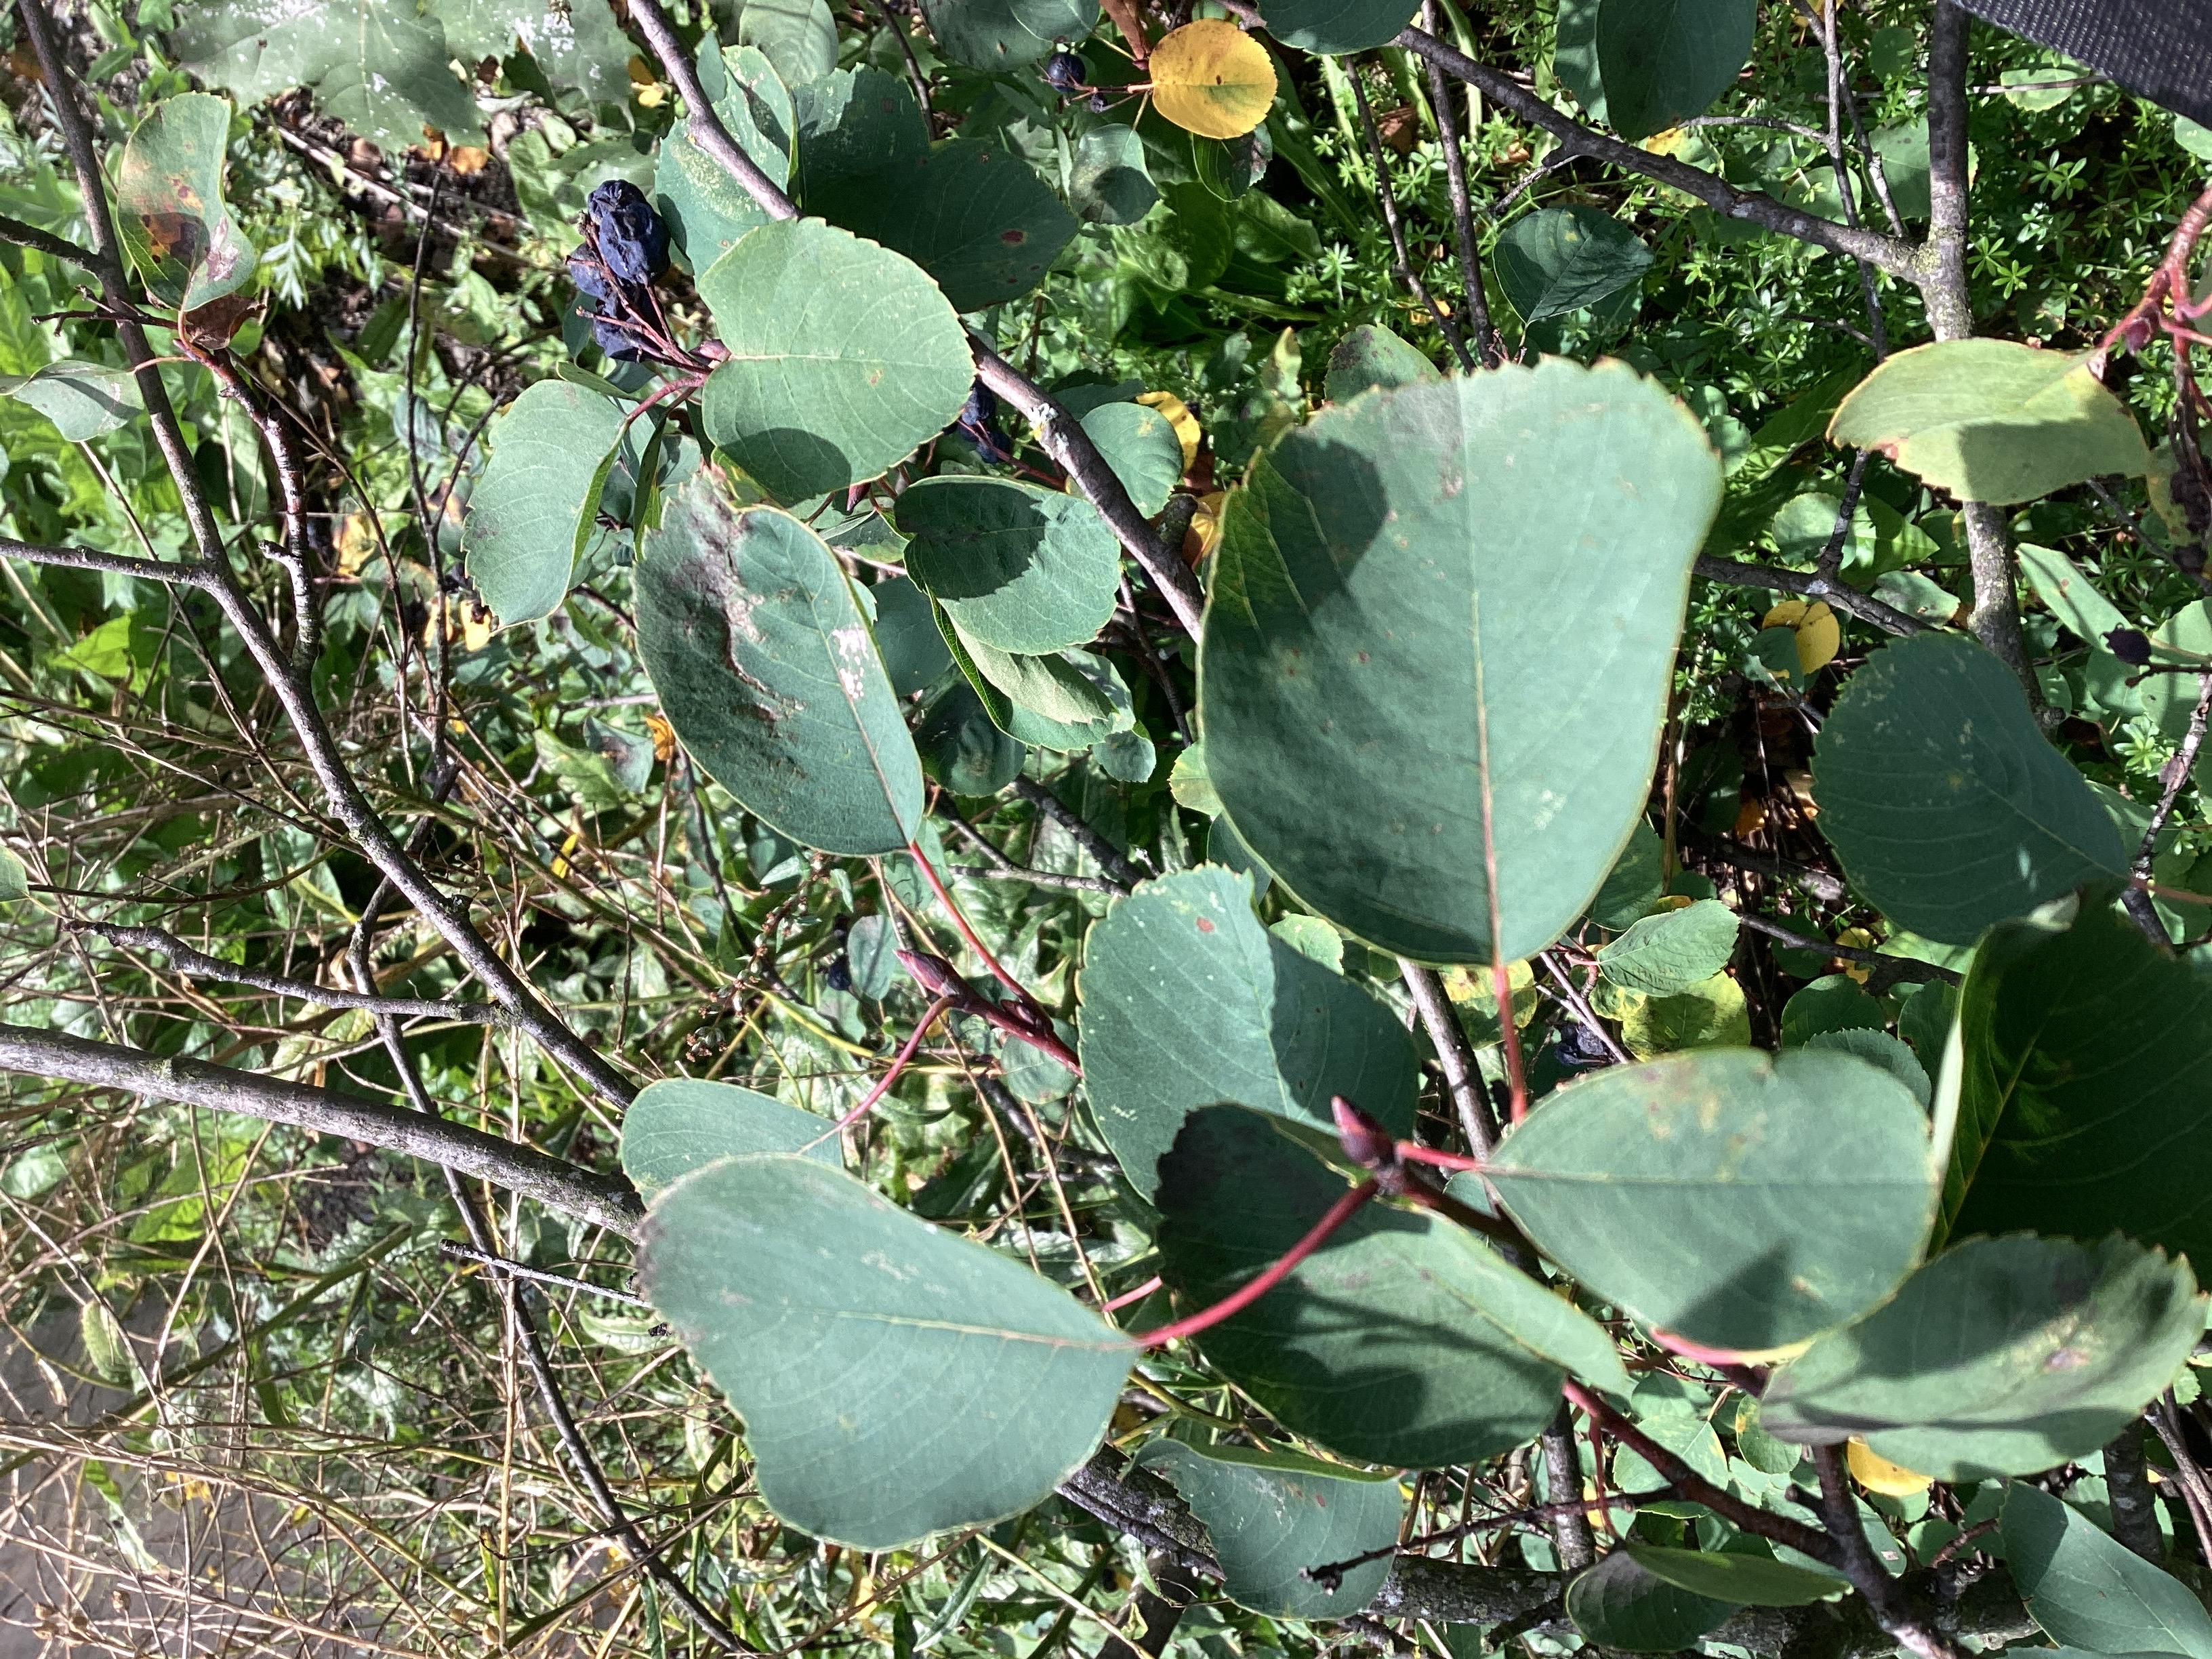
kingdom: Plantae
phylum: Tracheophyta
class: Magnoliopsida
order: Rosales
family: Rosaceae
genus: Amelanchier
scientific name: Amelanchier alnifolia
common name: taggblåhegg
